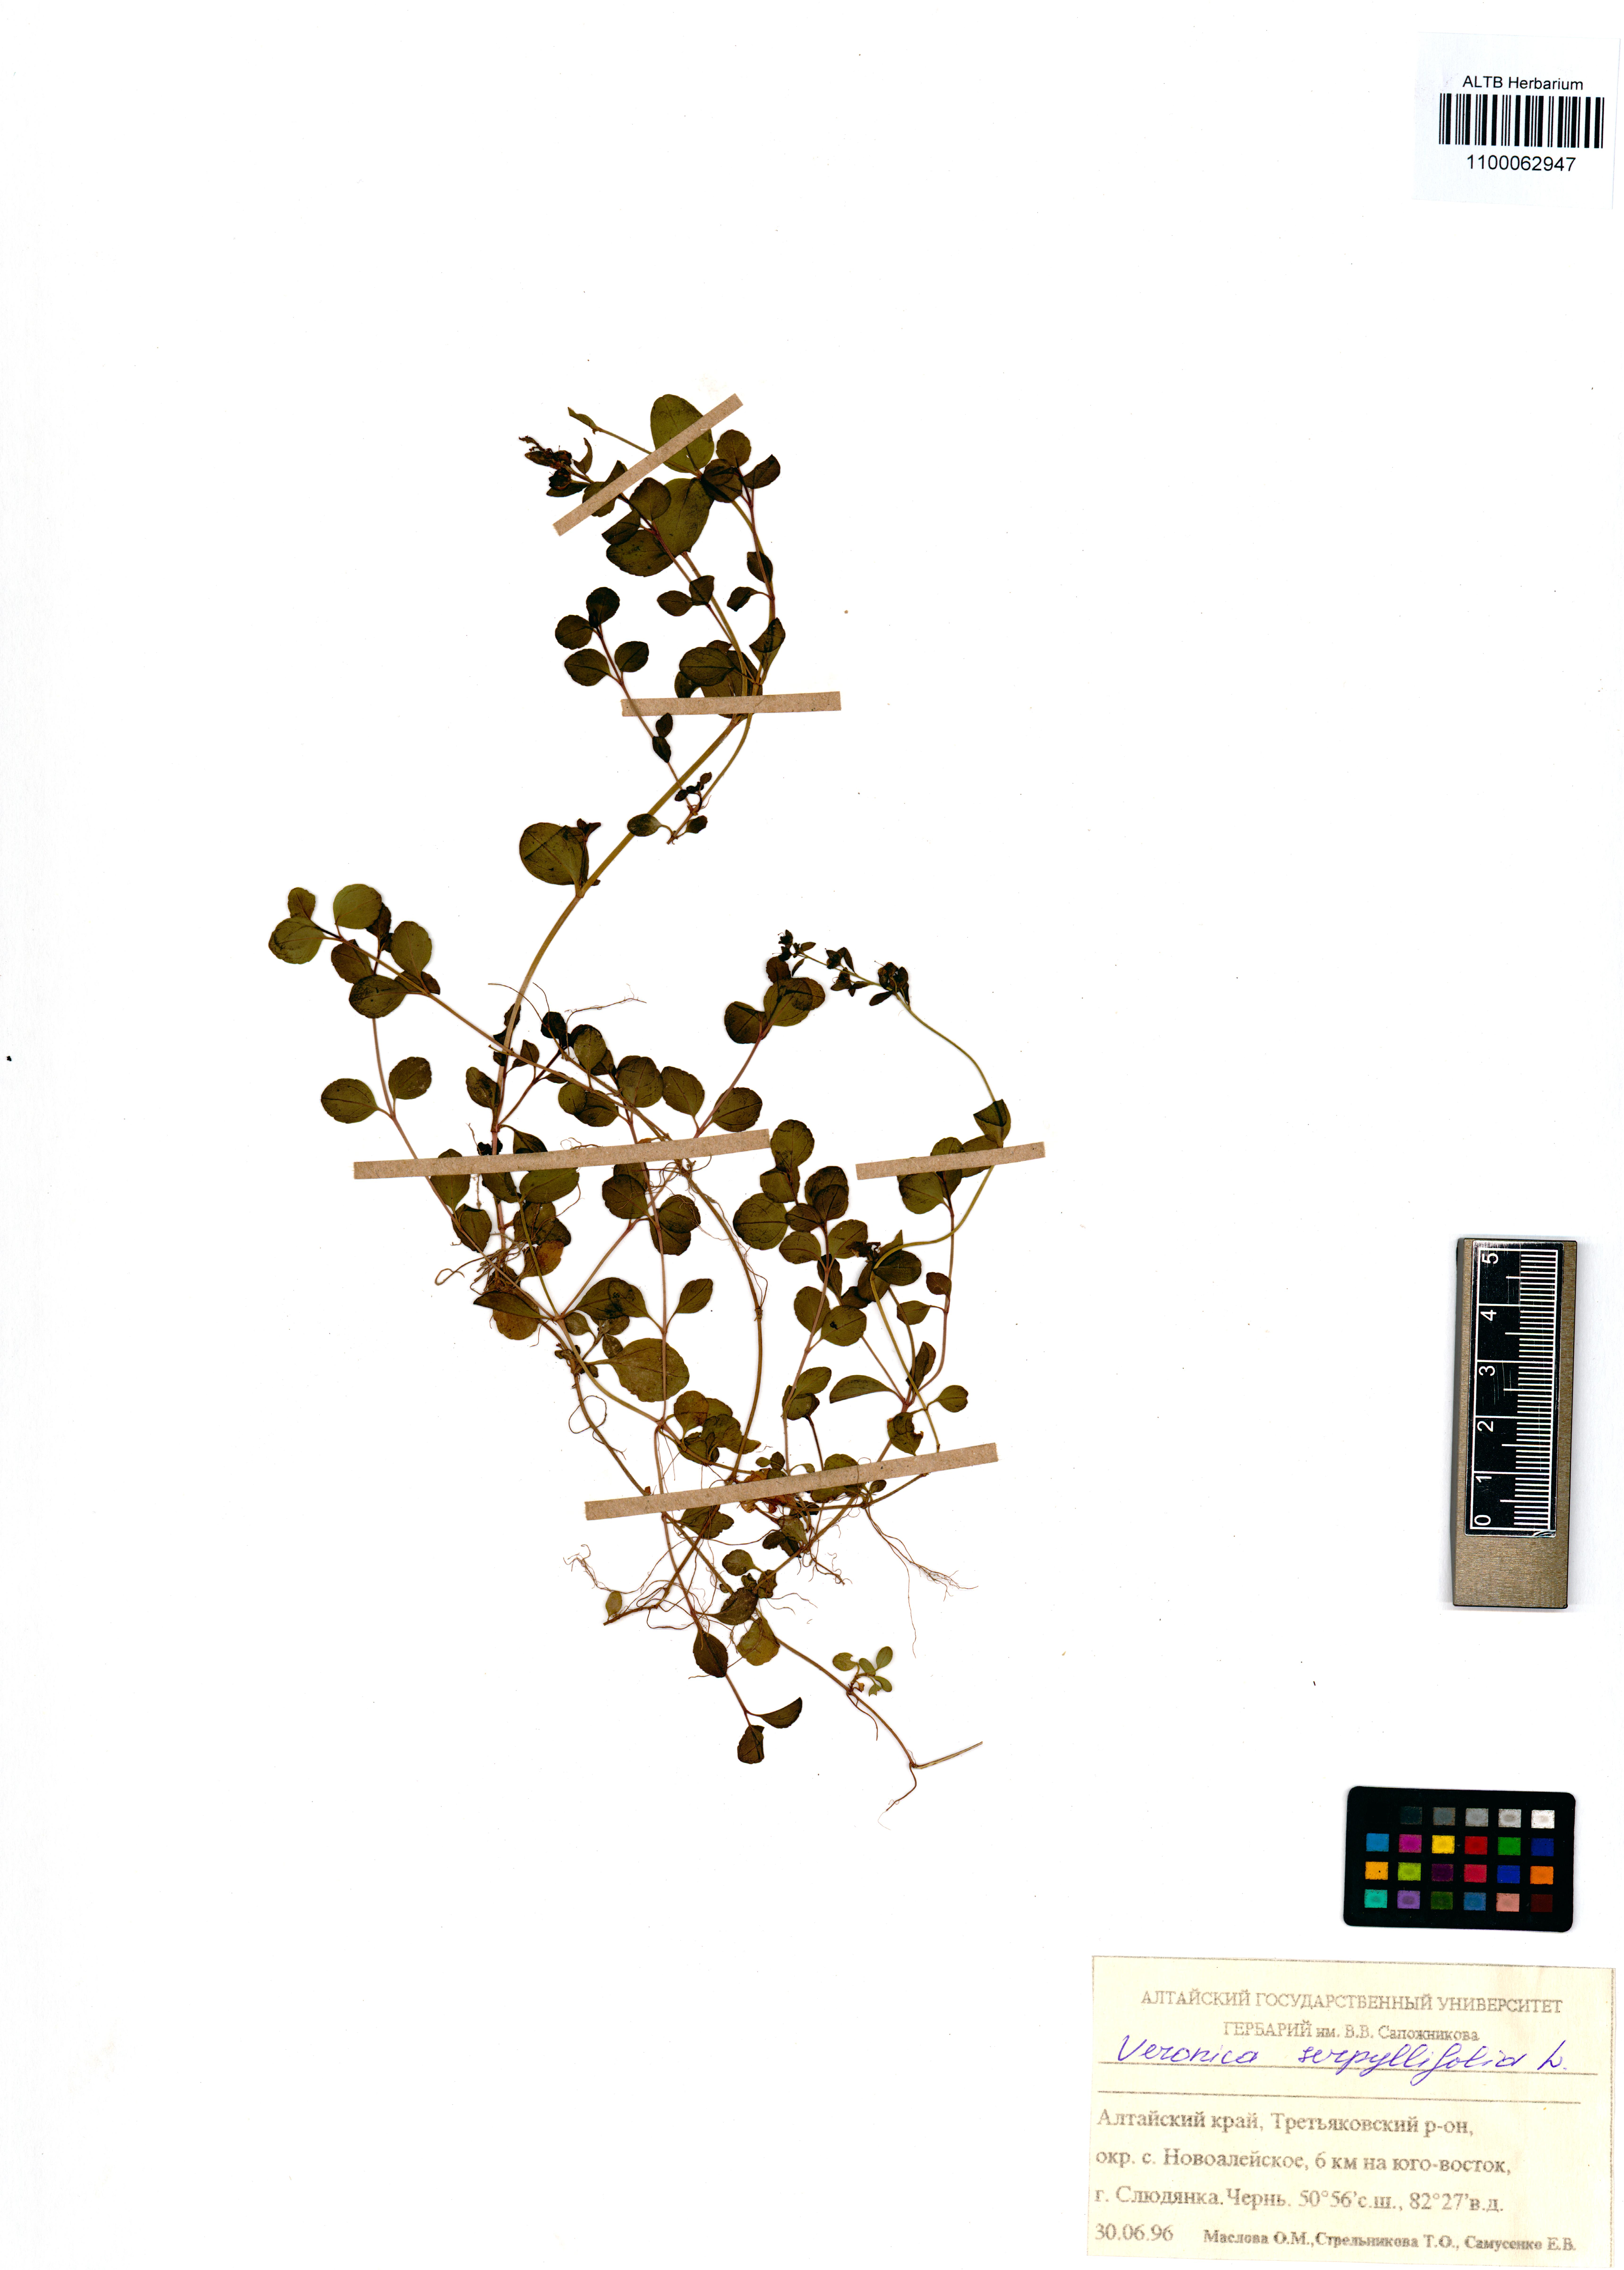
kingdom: Plantae
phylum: Tracheophyta
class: Magnoliopsida
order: Lamiales
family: Plantaginaceae
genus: Veronica
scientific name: Veronica serpyllifolia
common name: Thyme-leaved speedwell
